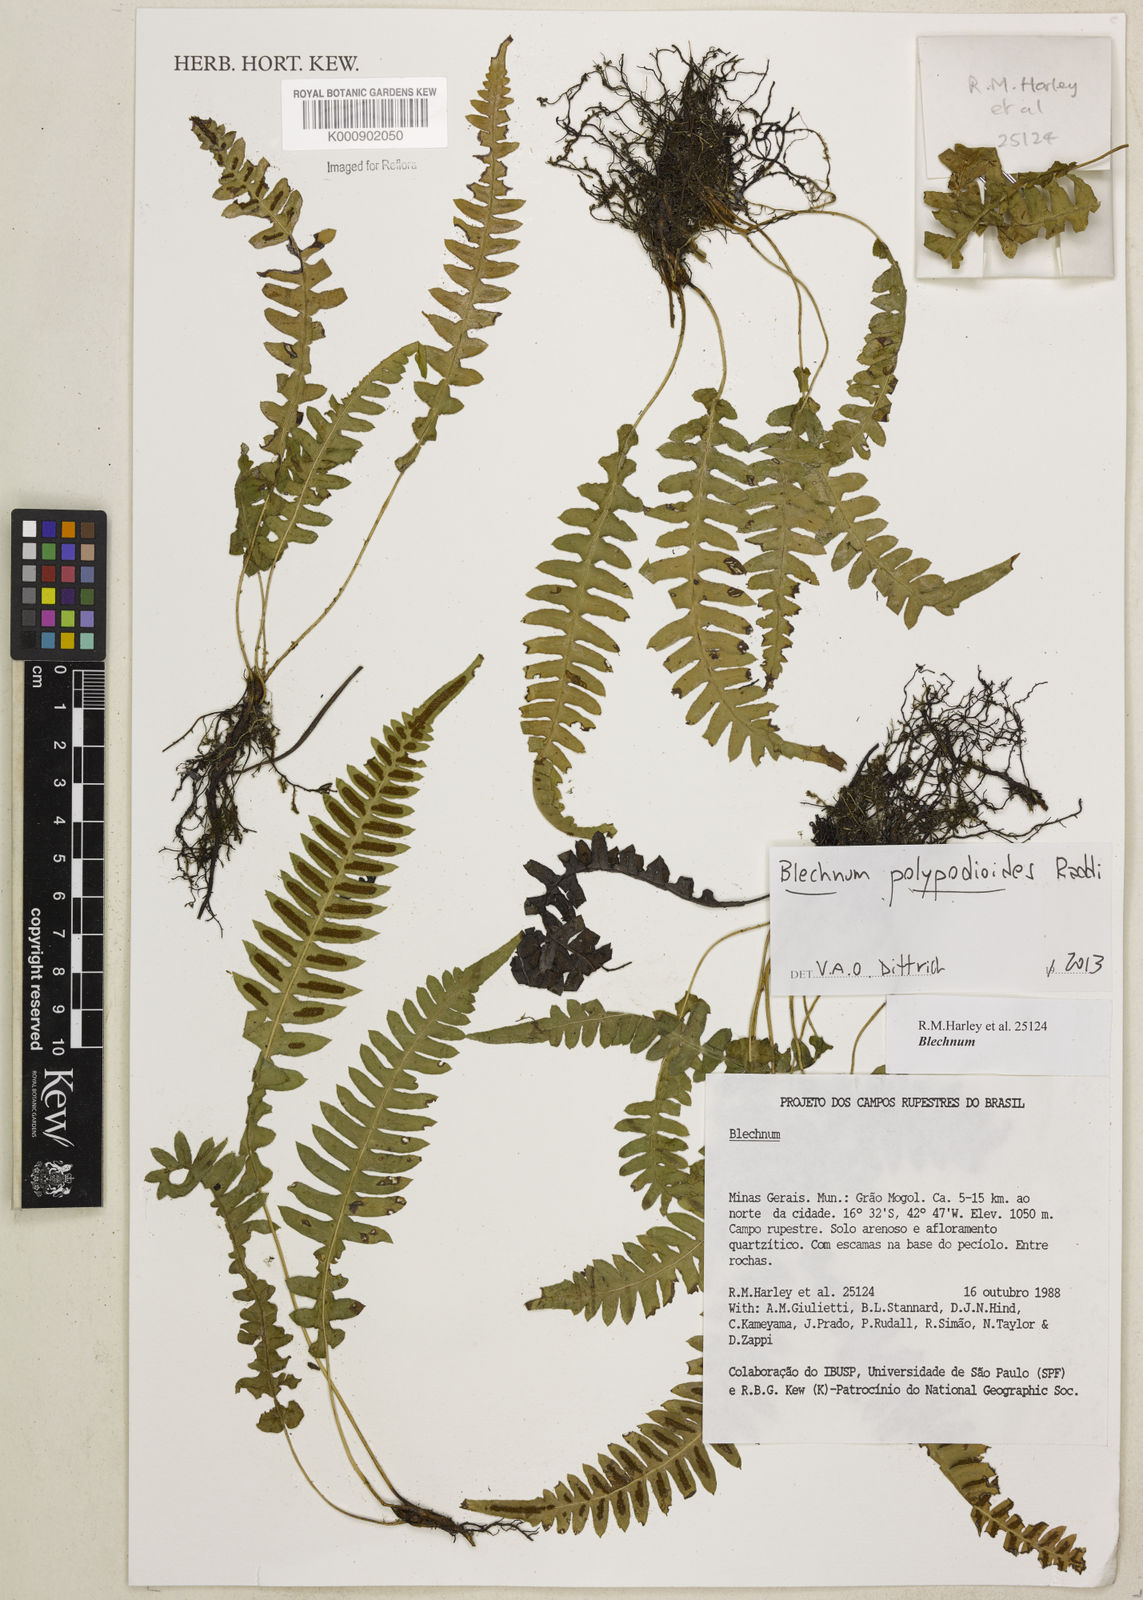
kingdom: Plantae
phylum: Tracheophyta
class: Polypodiopsida
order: Polypodiales
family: Blechnaceae
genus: Blechnum
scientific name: Blechnum polypodioides
